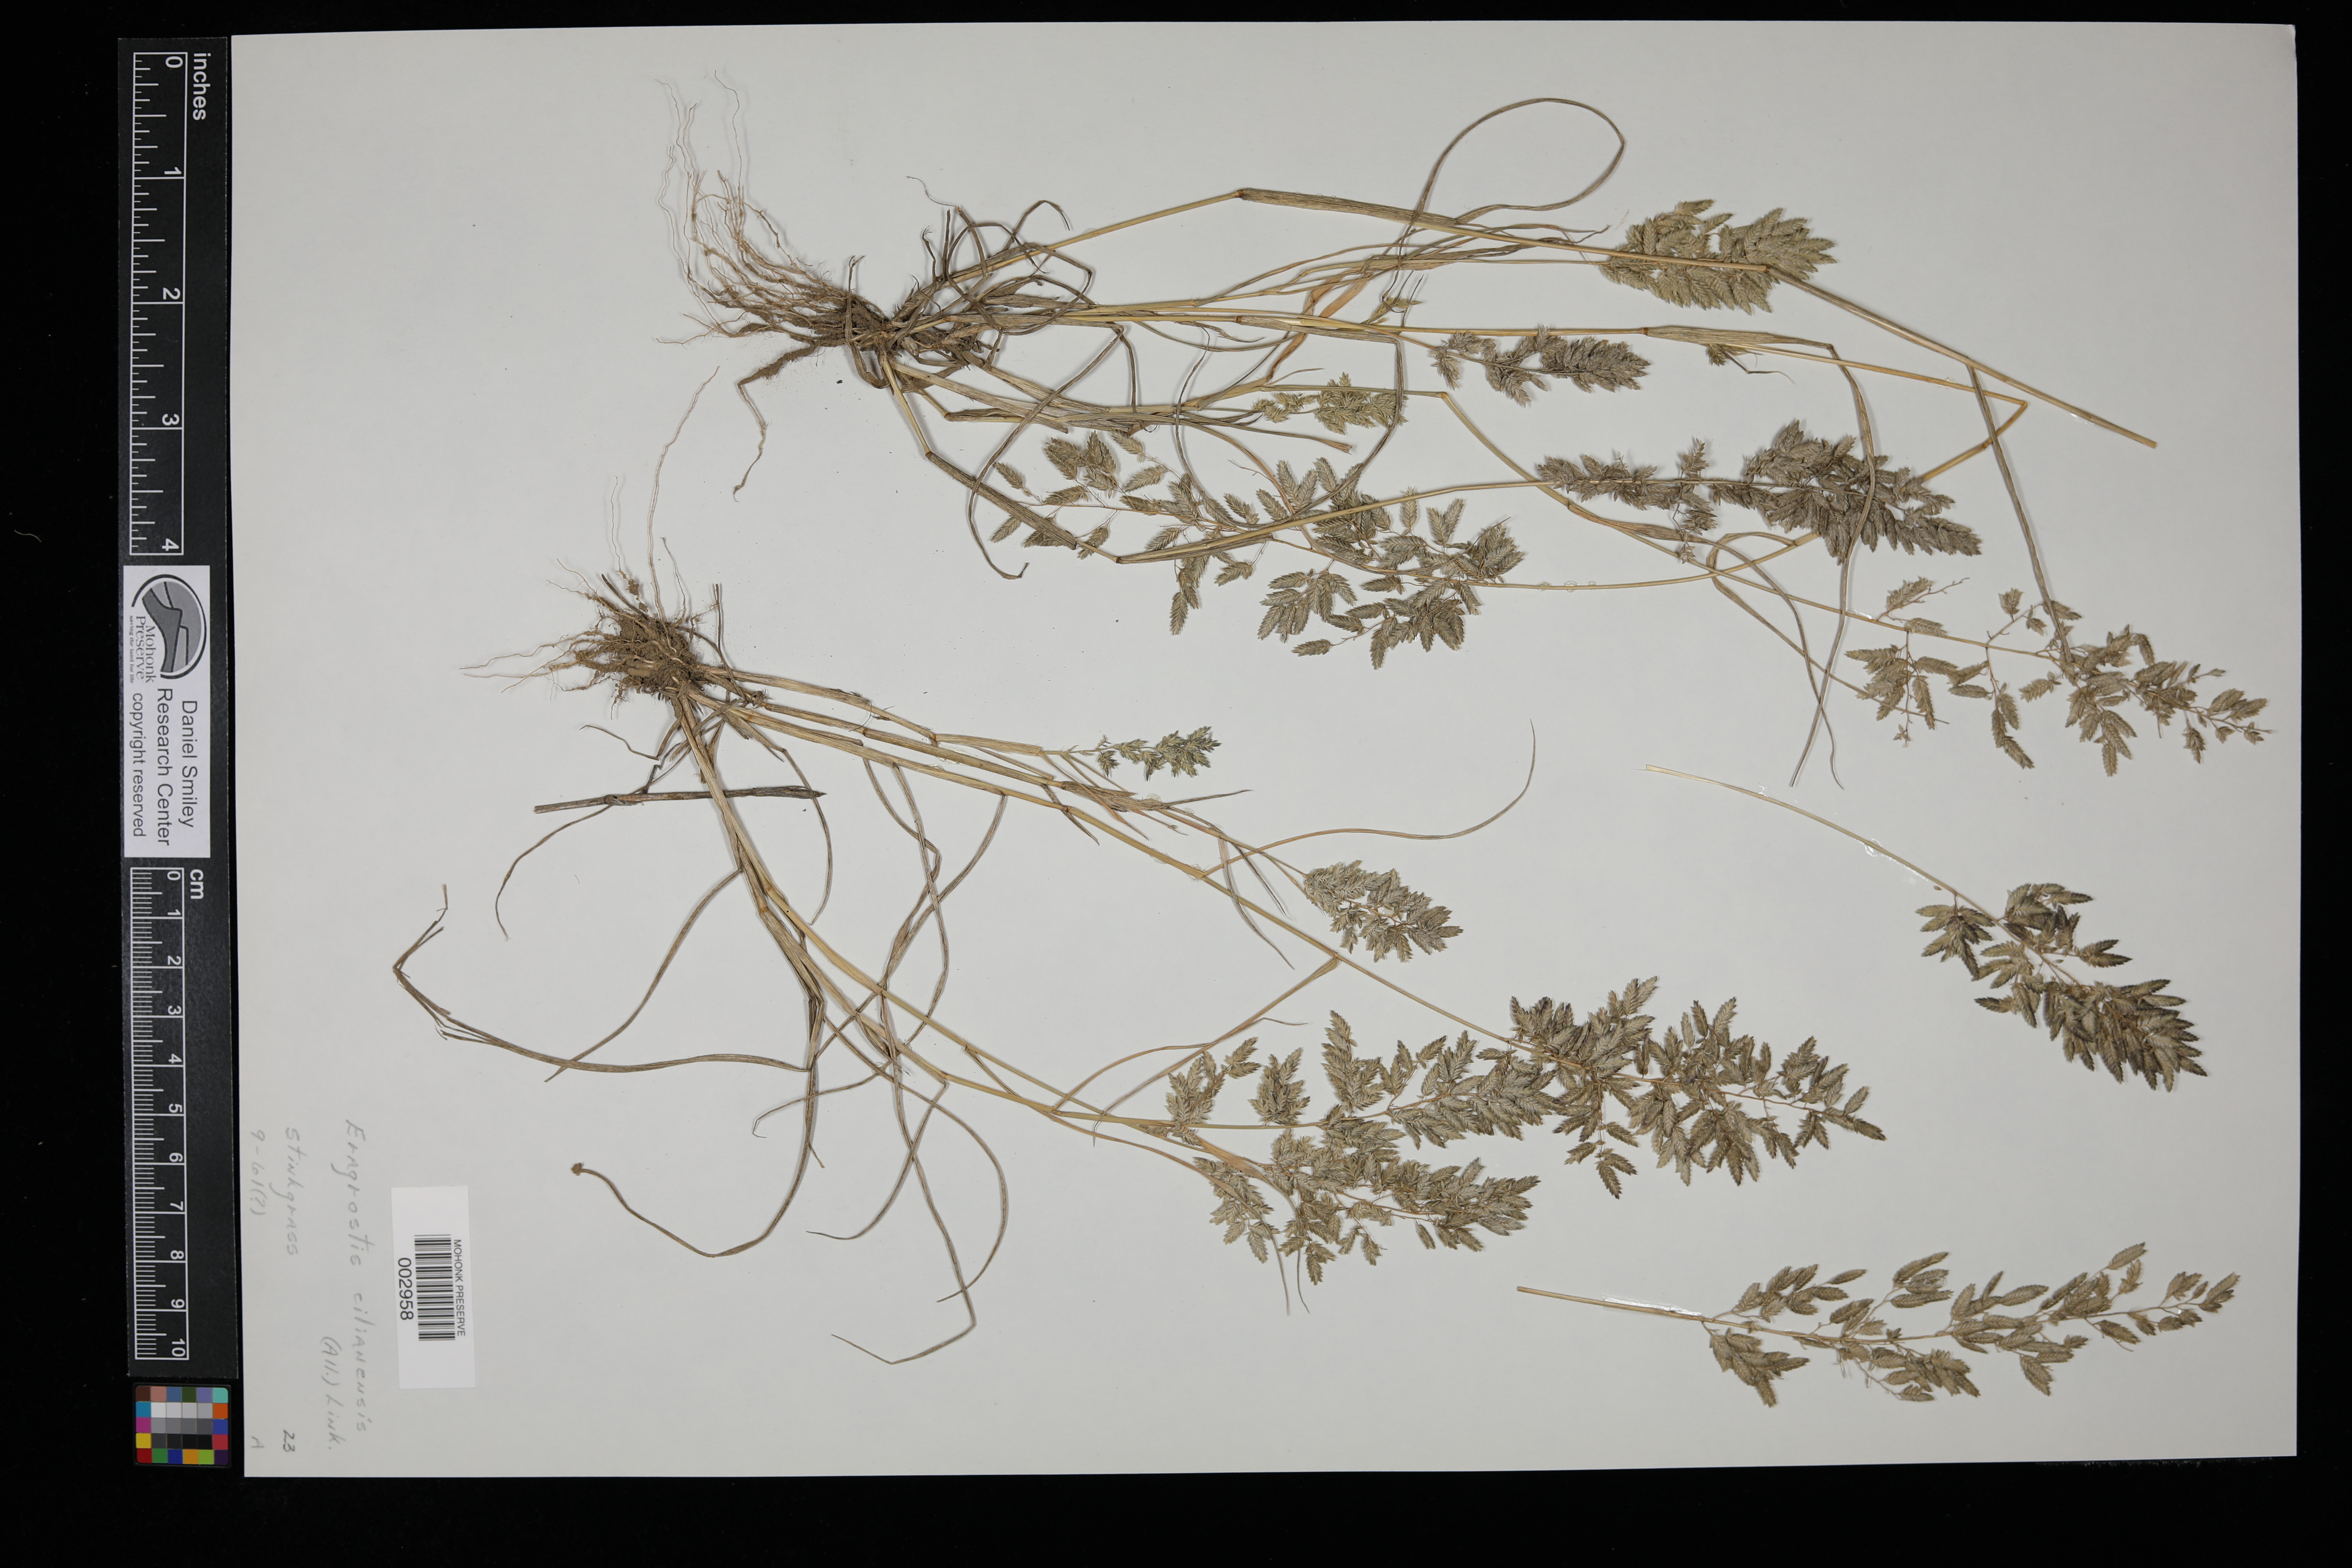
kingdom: Plantae
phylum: Tracheophyta
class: Liliopsida
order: Poales
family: Poaceae
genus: Eragrostis
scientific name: Eragrostis cilianensis
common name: Stinkgrass
